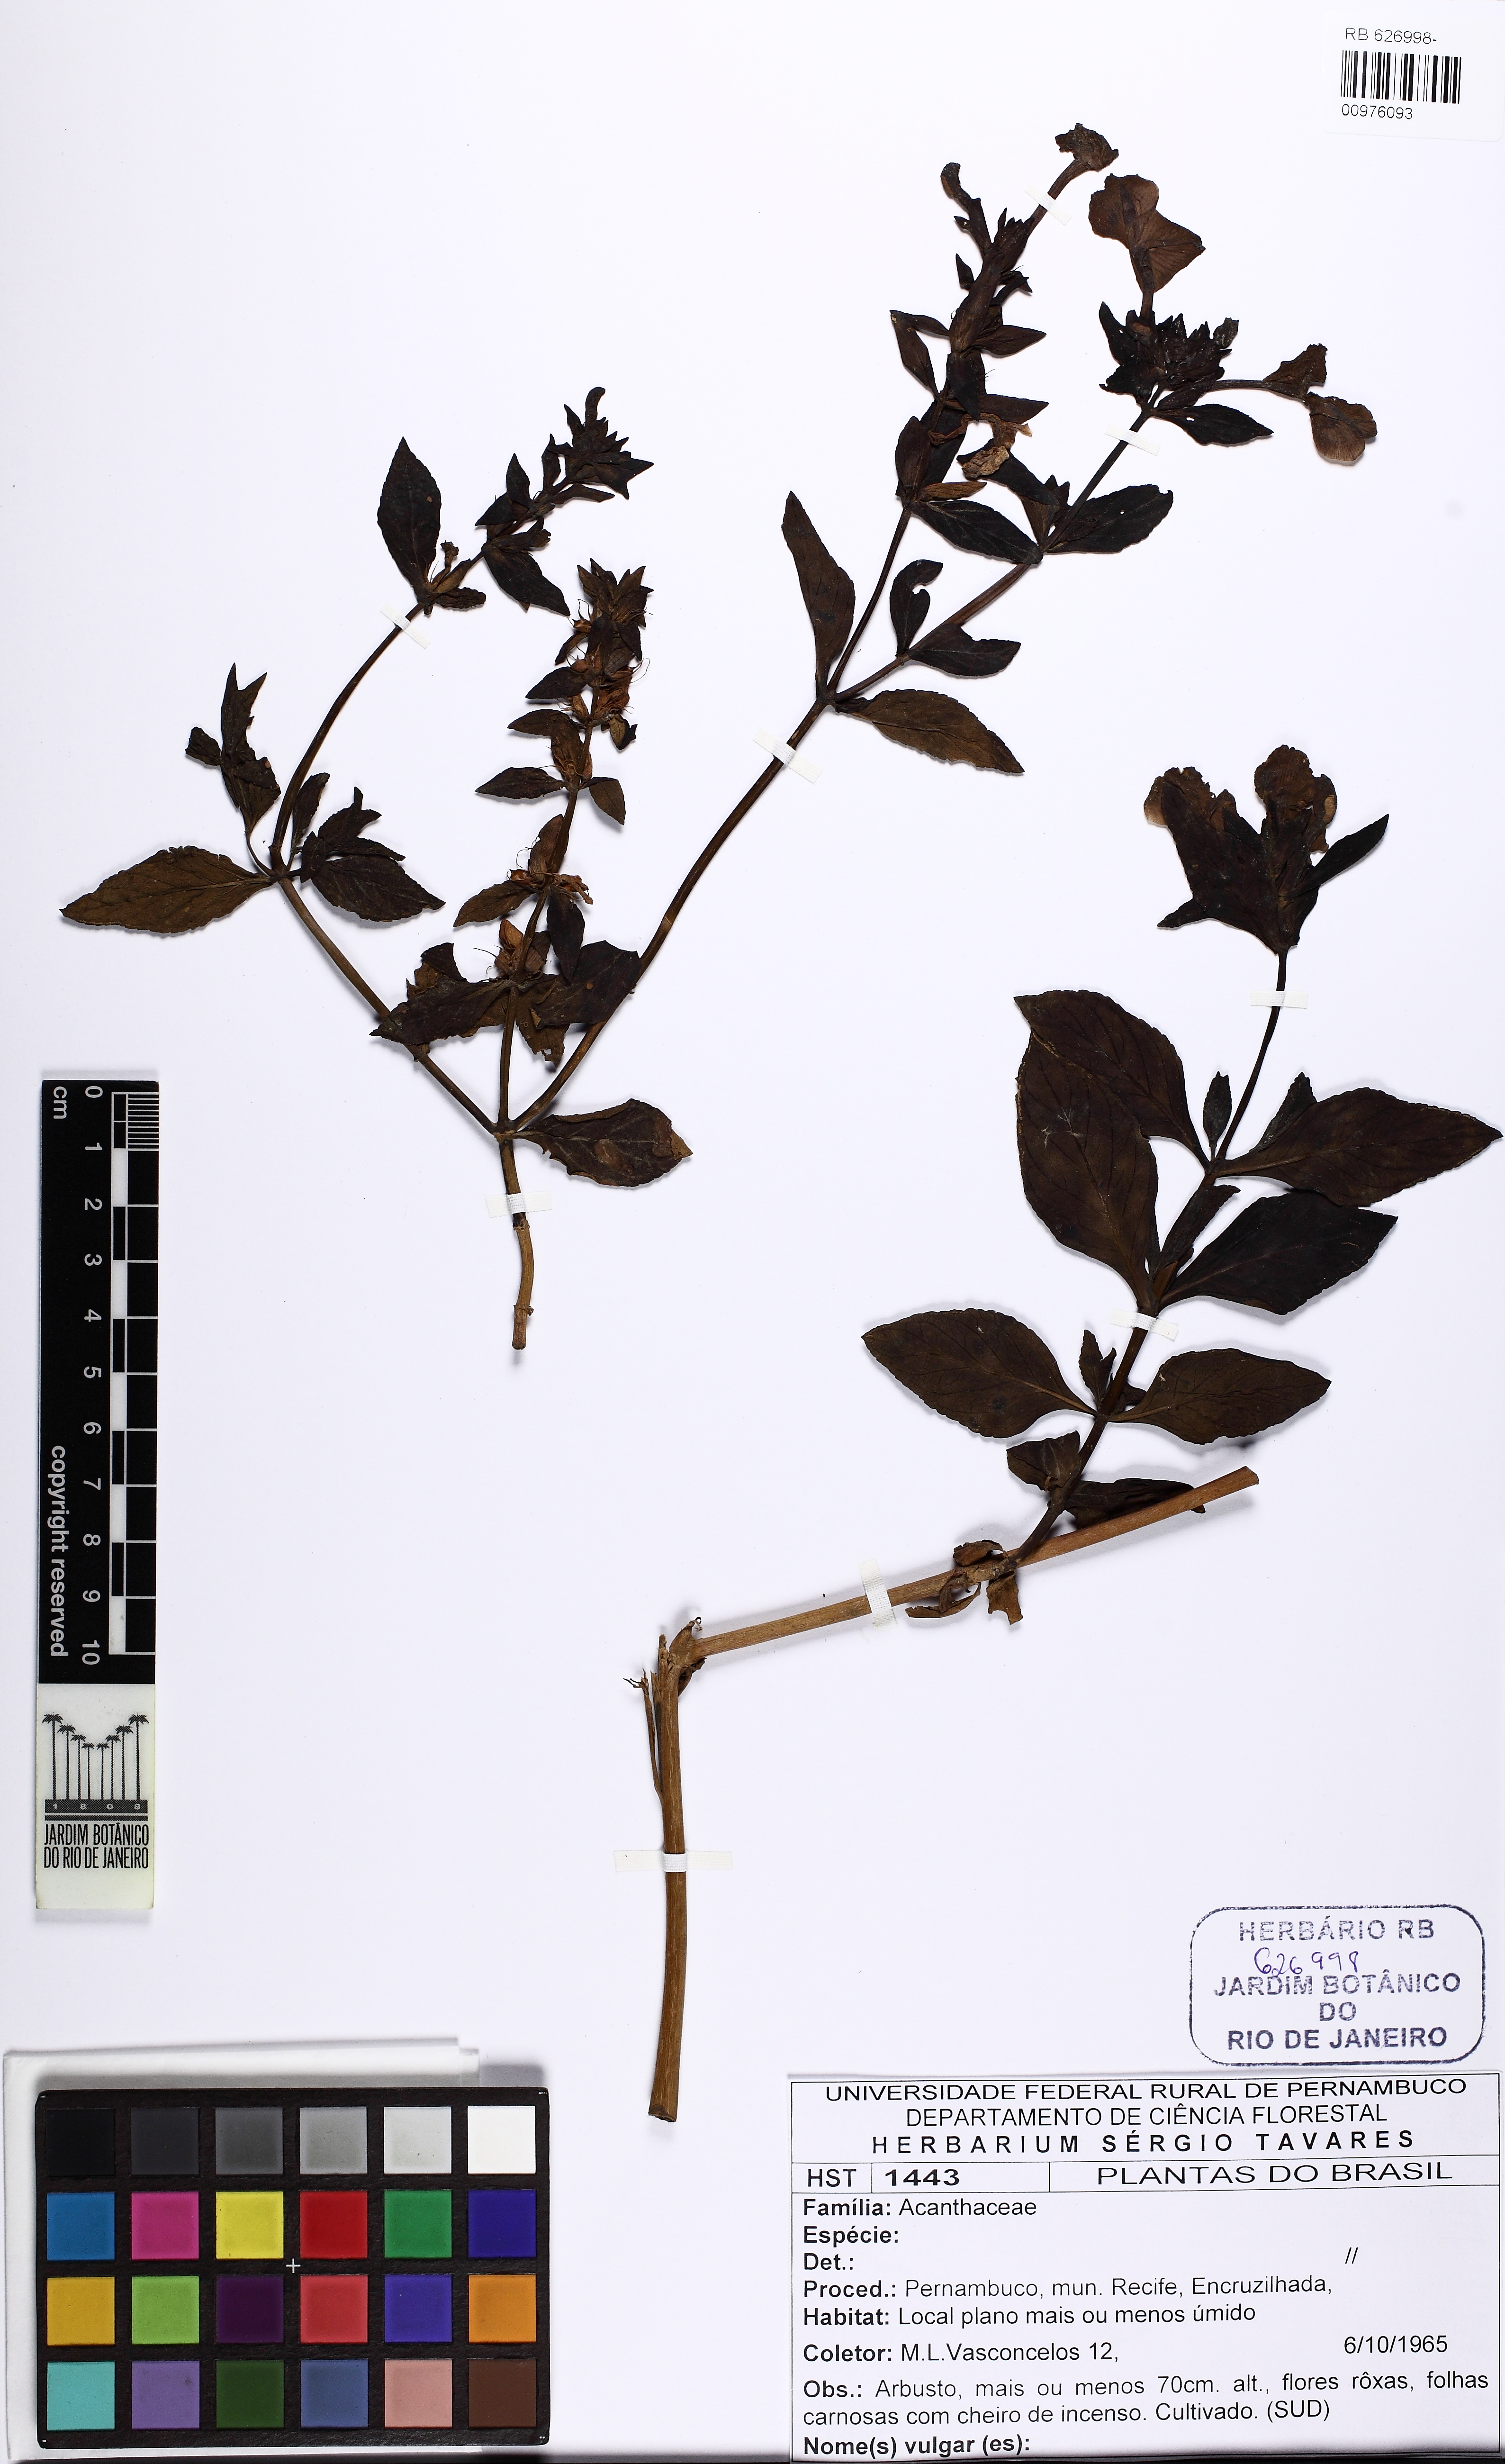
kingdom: Plantae
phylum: Tracheophyta
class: Magnoliopsida
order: Lamiales
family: Plantaginaceae
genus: Matourea
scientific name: Matourea azurea
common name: Amazon blue
